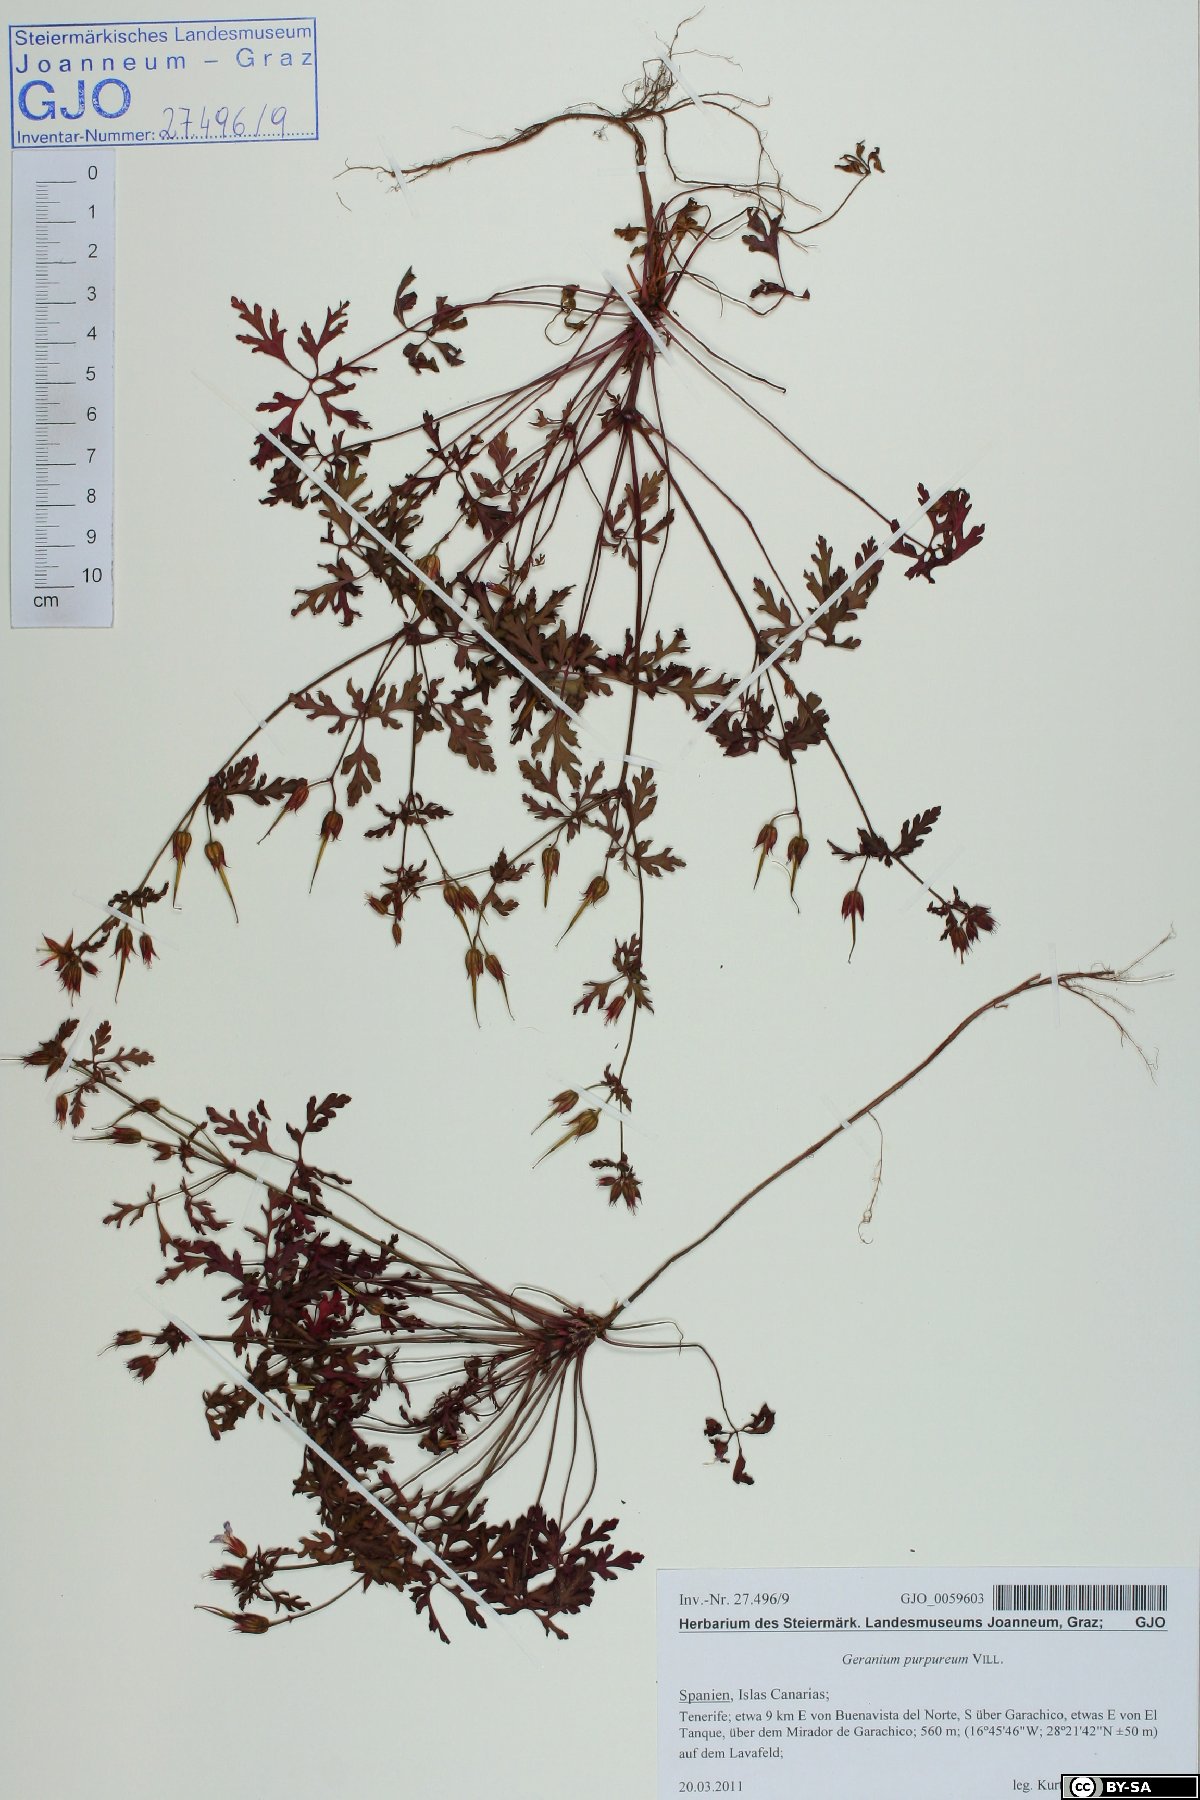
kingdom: Plantae
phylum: Tracheophyta
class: Magnoliopsida
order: Geraniales
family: Geraniaceae
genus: Geranium
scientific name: Geranium purpureum
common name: Little-robin
